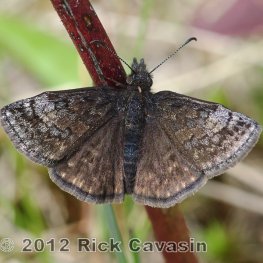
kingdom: Animalia
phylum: Arthropoda
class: Insecta
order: Lepidoptera
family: Hesperiidae
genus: Erynnis
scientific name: Erynnis icelus
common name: Dreamy Duskywing
